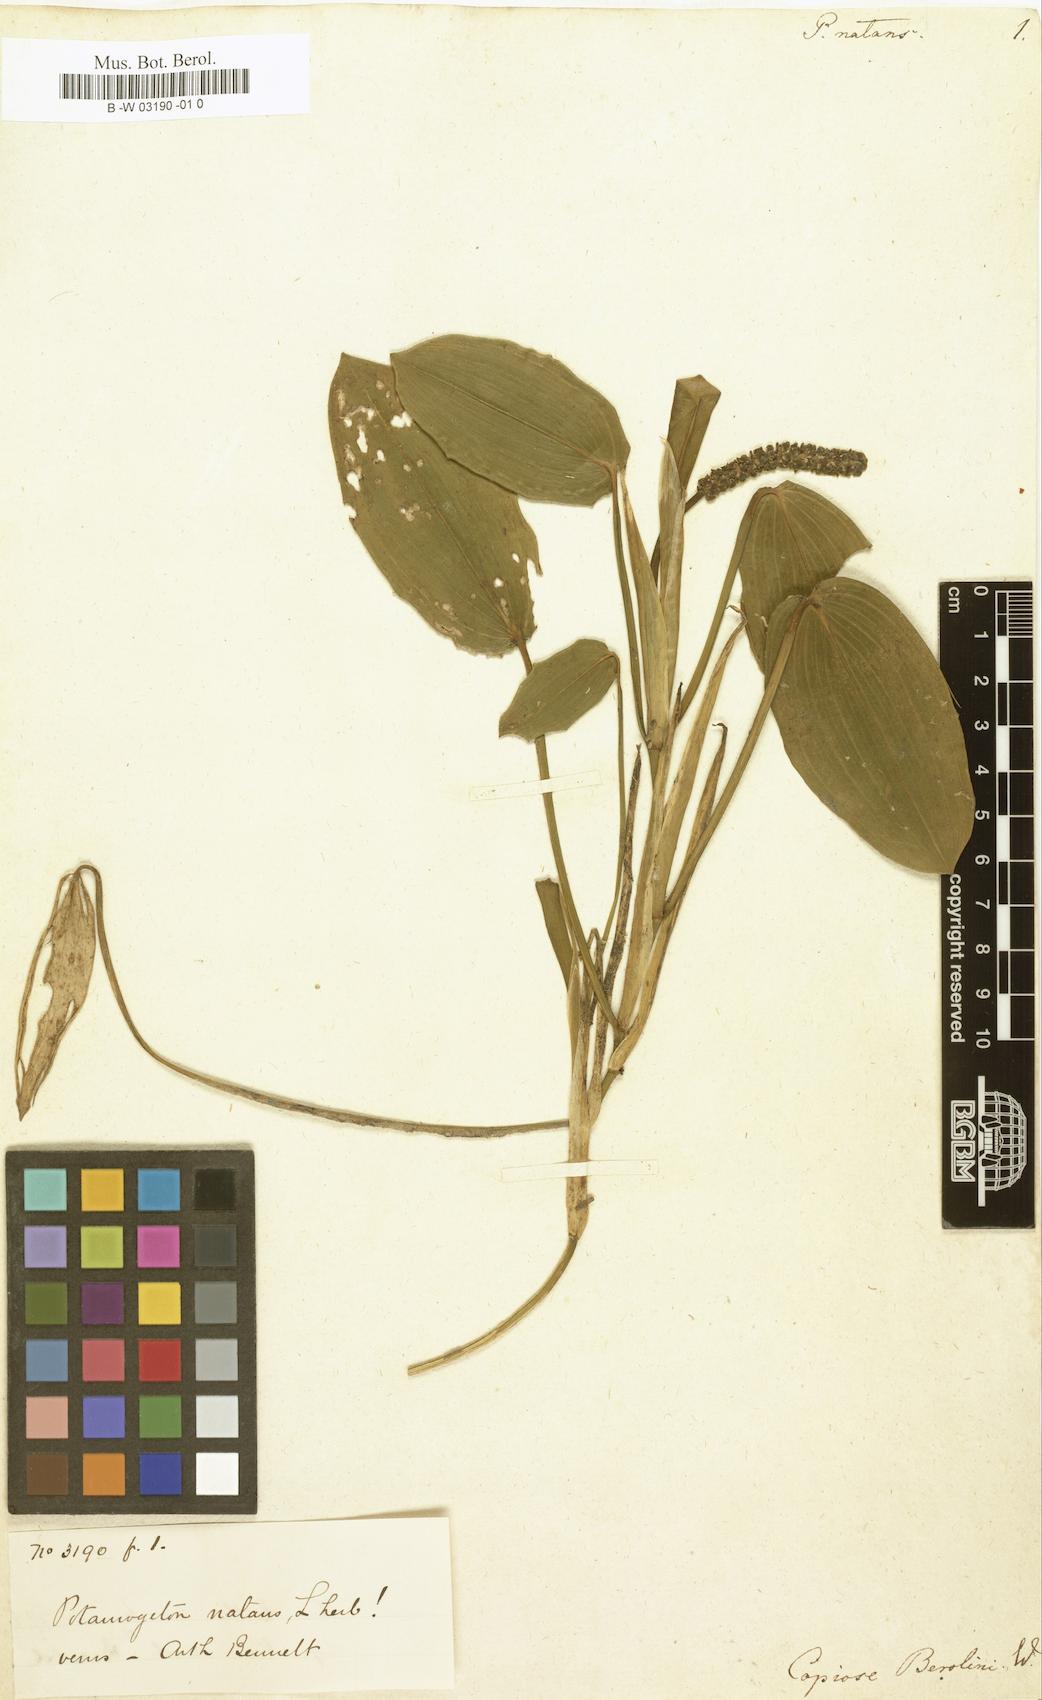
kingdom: Plantae
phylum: Tracheophyta
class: Liliopsida
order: Alismatales
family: Potamogetonaceae
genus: Potamogeton
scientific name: Potamogeton natans
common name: Broad-leaved pondweed
